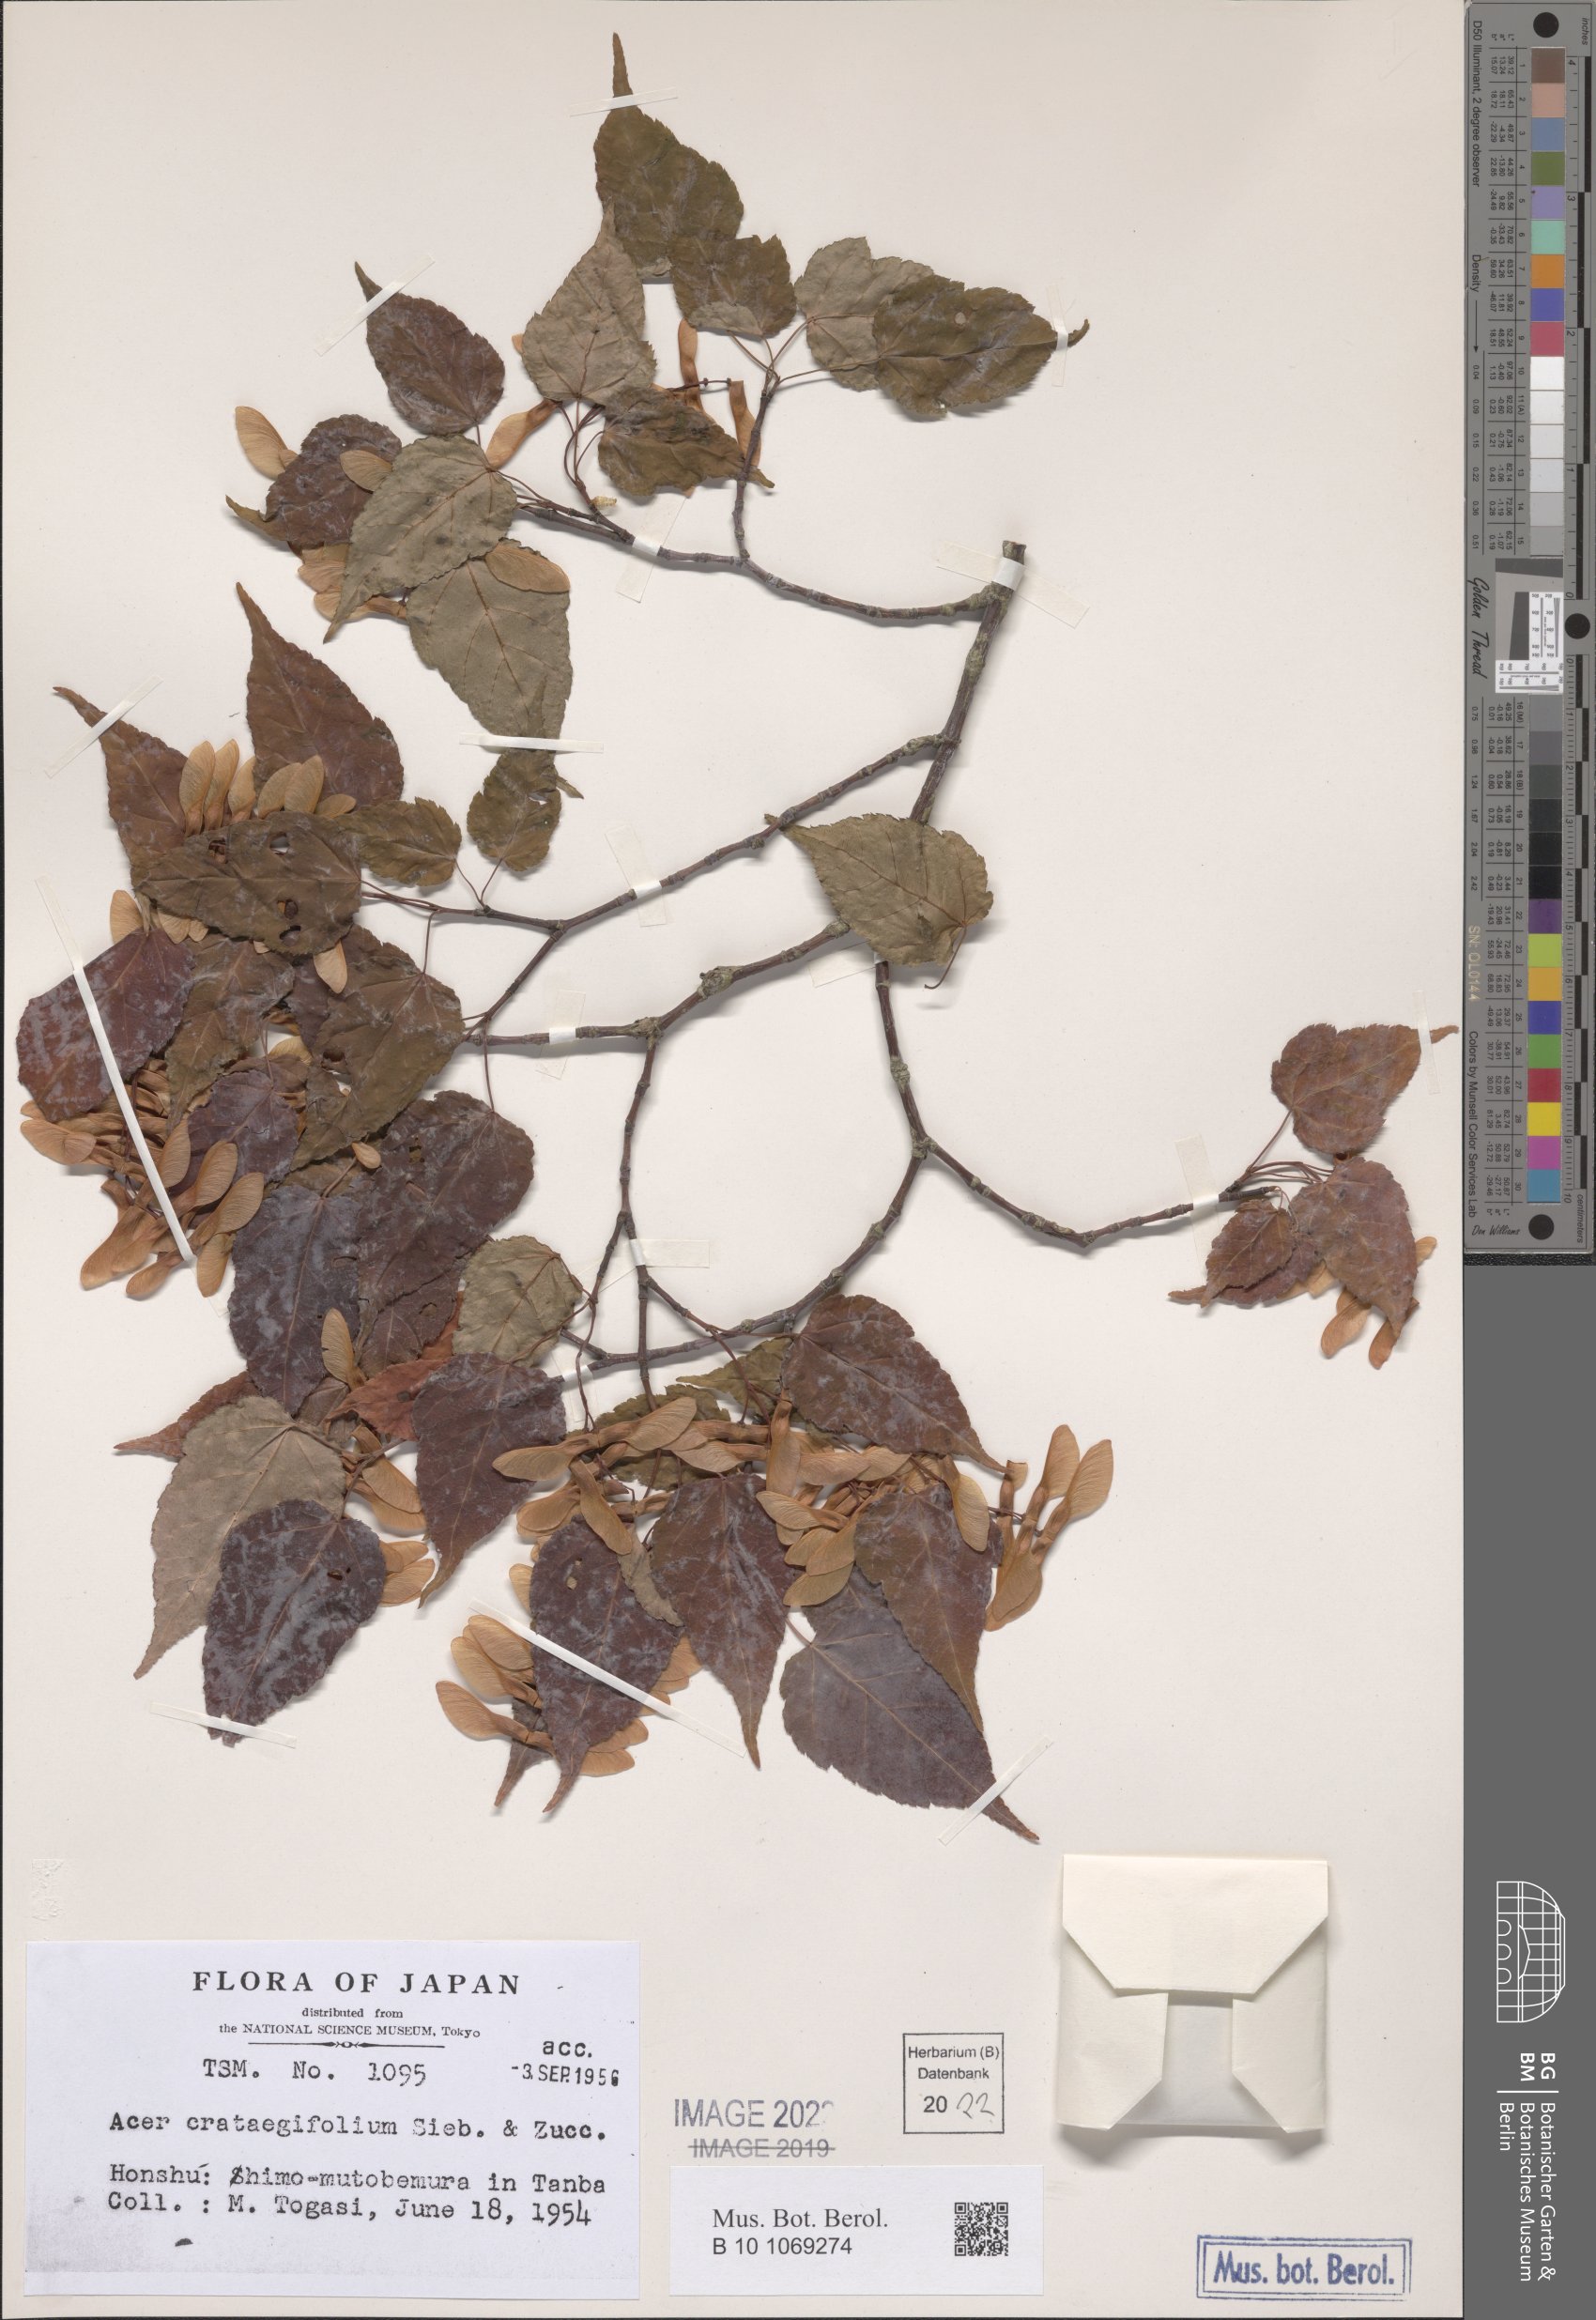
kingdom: Plantae
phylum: Tracheophyta
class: Magnoliopsida
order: Sapindales
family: Sapindaceae
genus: Acer
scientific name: Acer crataegifolium
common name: Hawthorn-leaf maple
